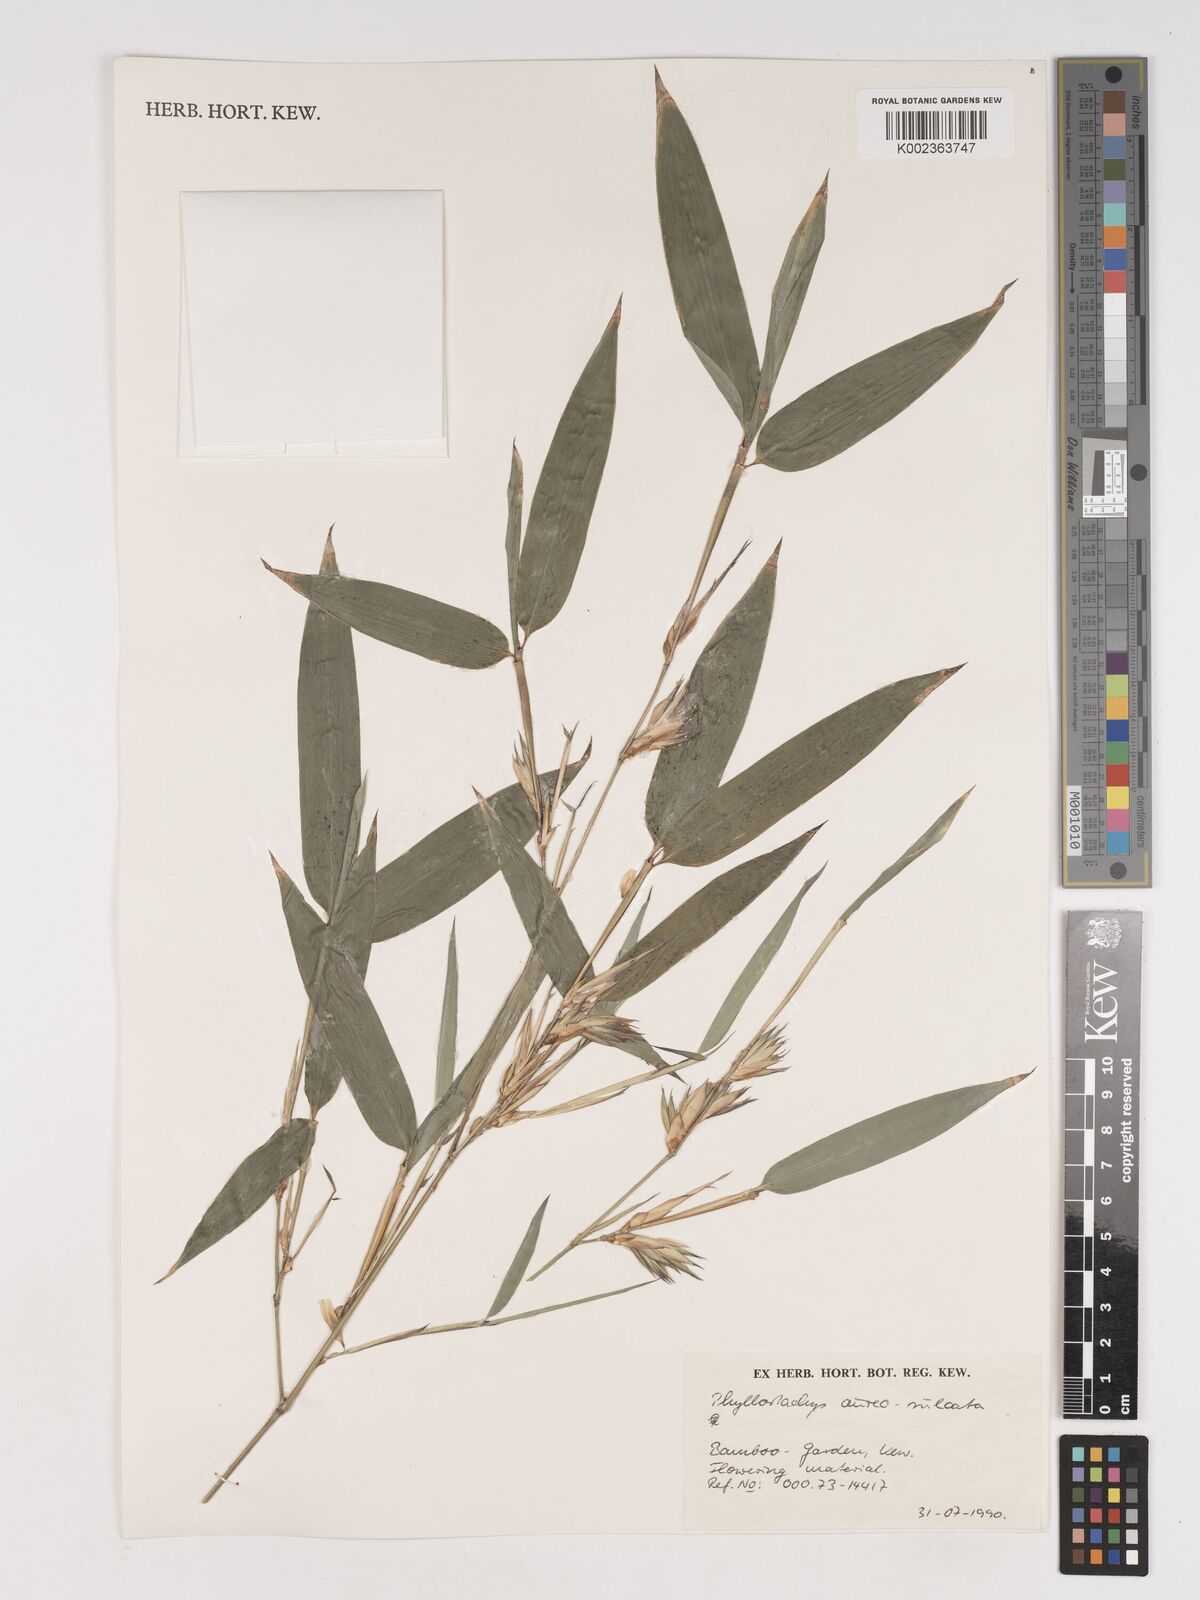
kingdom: Plantae
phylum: Tracheophyta
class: Liliopsida
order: Poales
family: Poaceae
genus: Phyllostachys
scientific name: Phyllostachys aureosulcata
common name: Yellow groove bamboo
